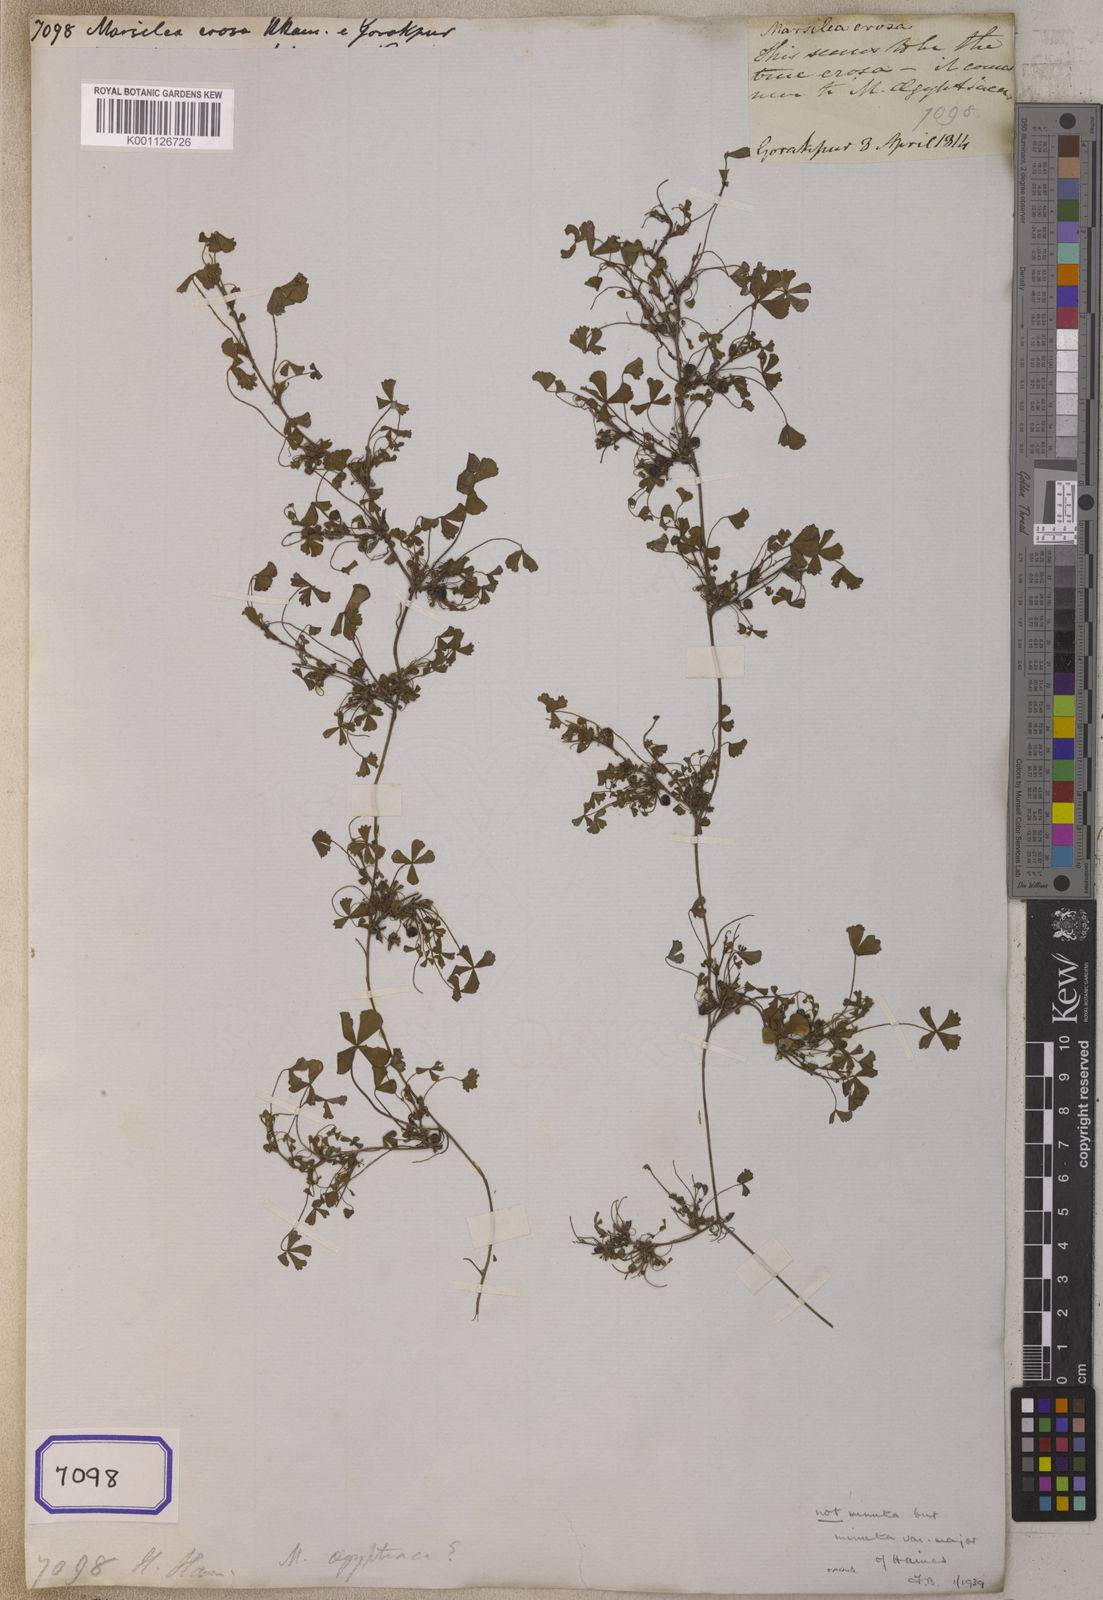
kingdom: Plantae
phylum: Tracheophyta
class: Polypodiopsida
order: Salviniales
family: Marsileaceae
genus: Marsilea
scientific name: Marsilea minuta
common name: Dwarf waterclover
